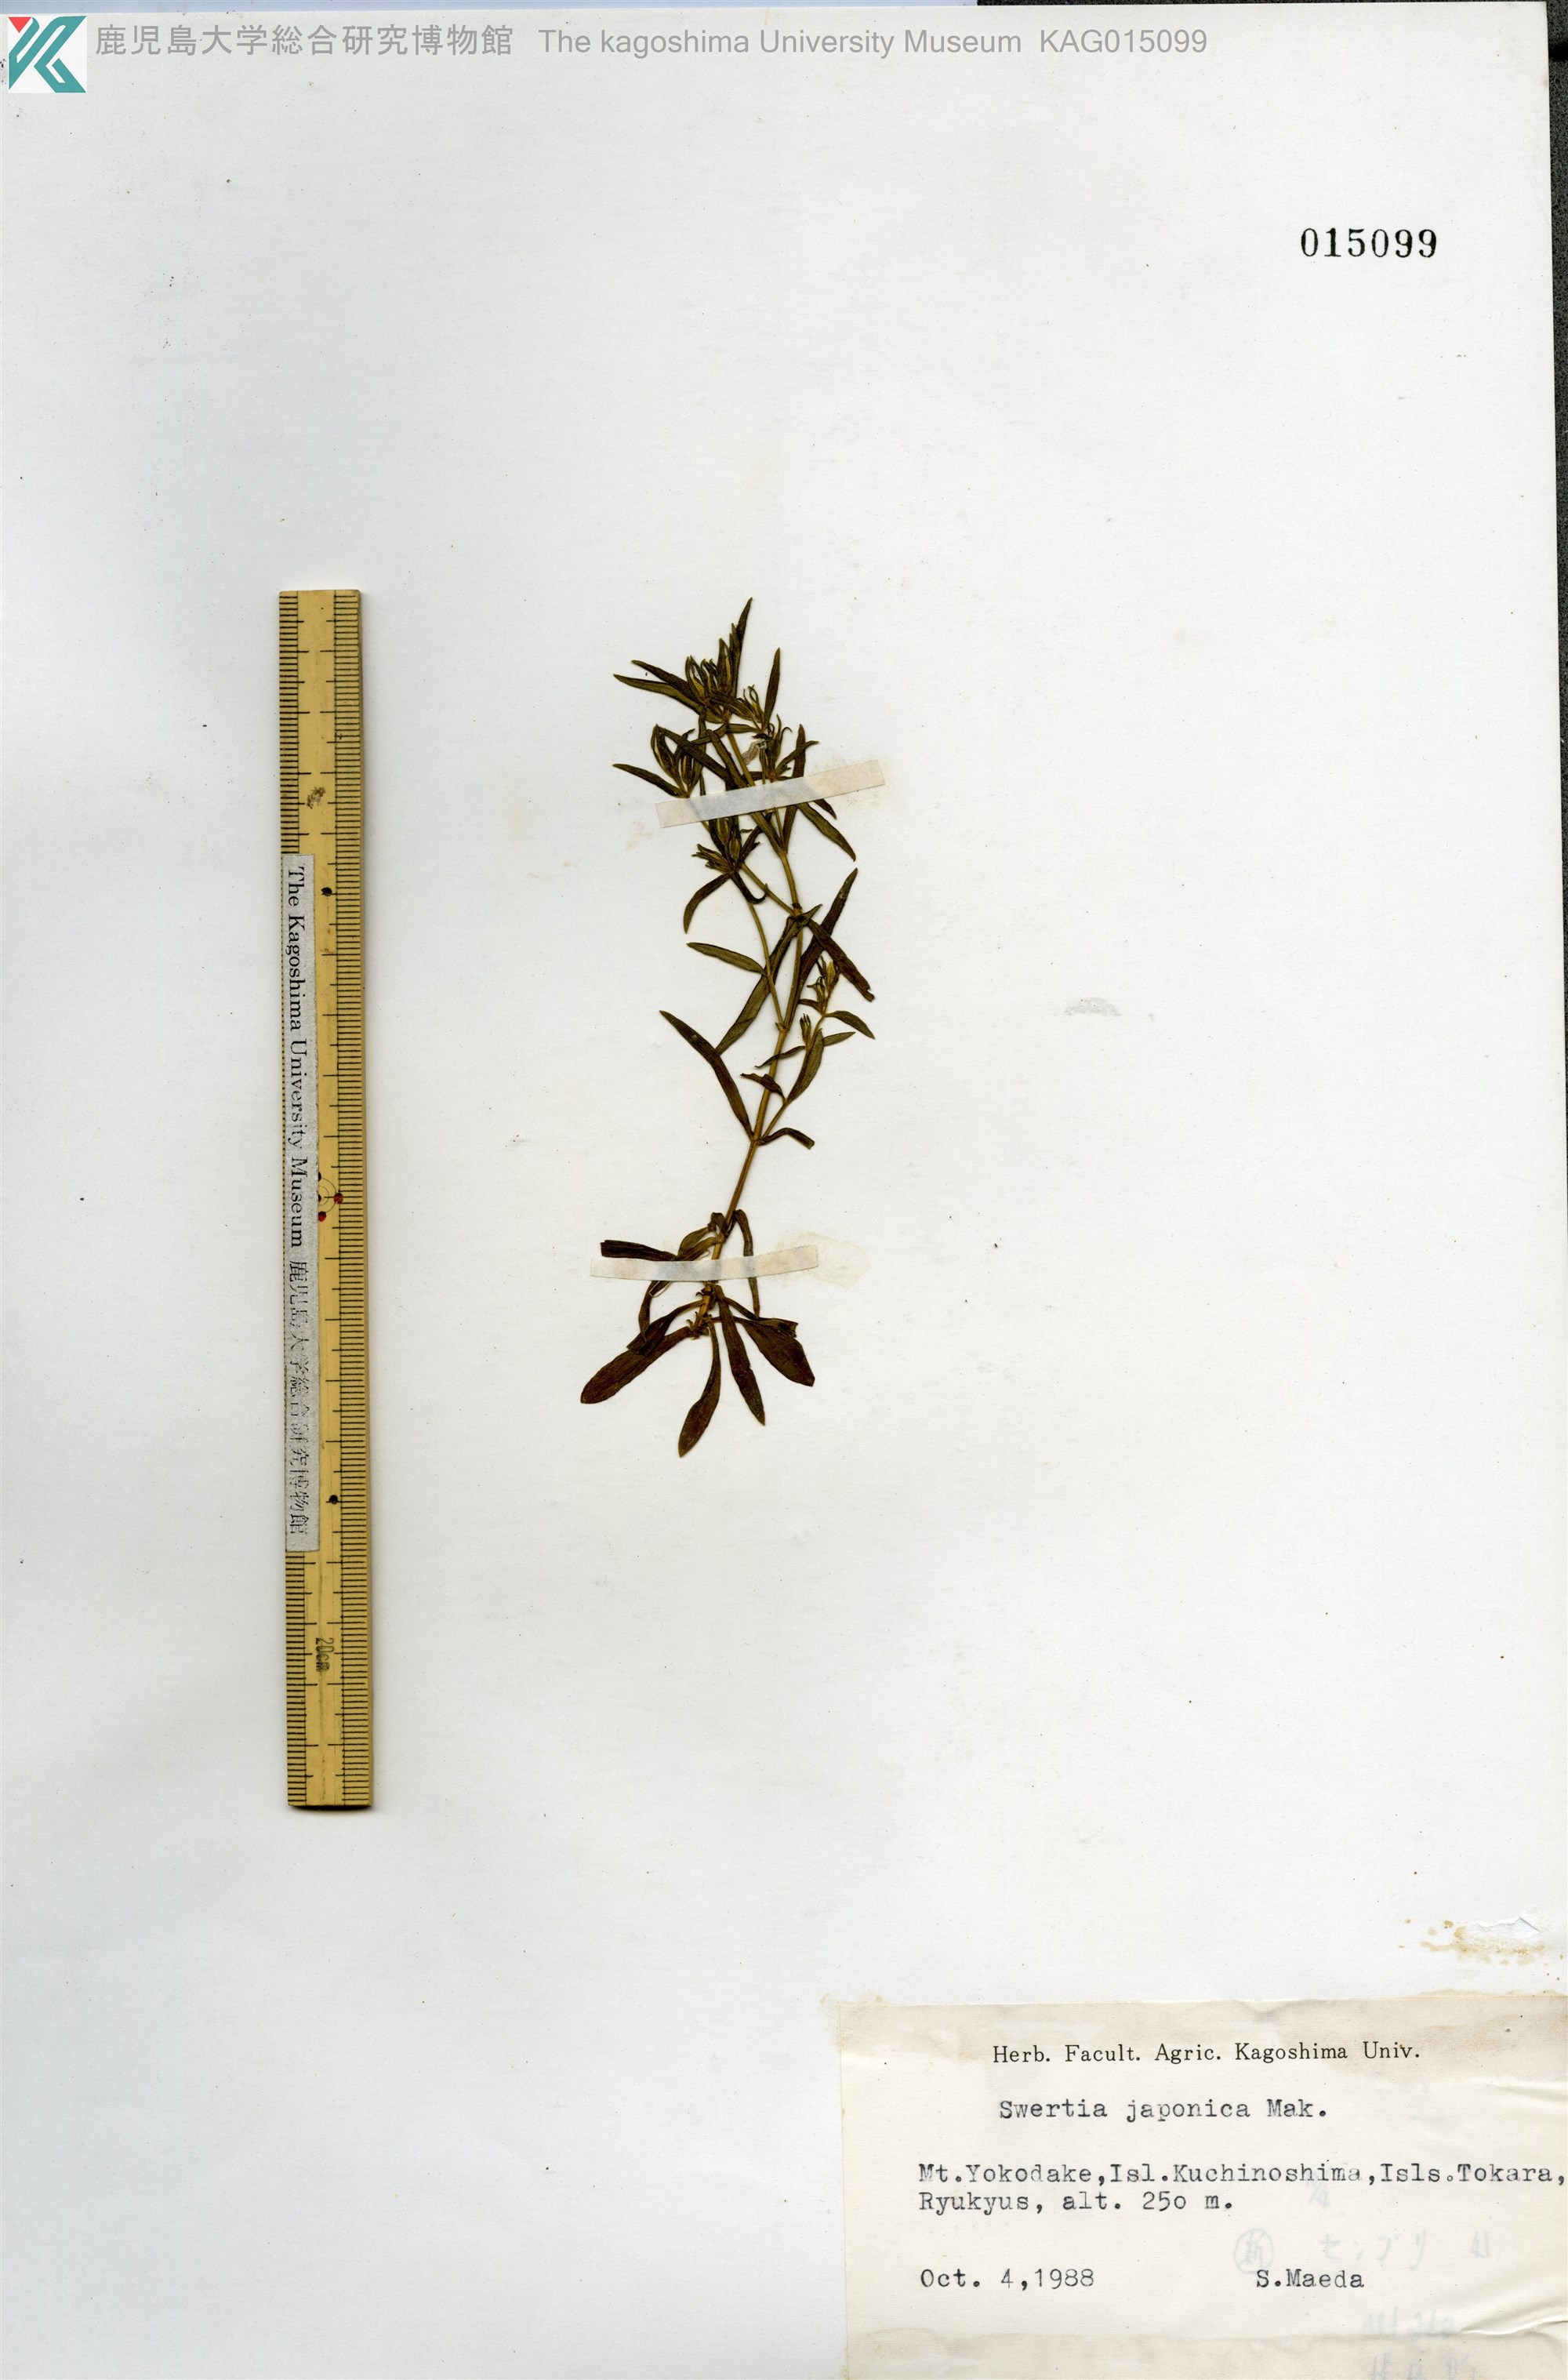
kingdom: Plantae
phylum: Tracheophyta
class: Magnoliopsida
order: Gentianales
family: Gentianaceae
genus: Swertia
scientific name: Swertia japonica
